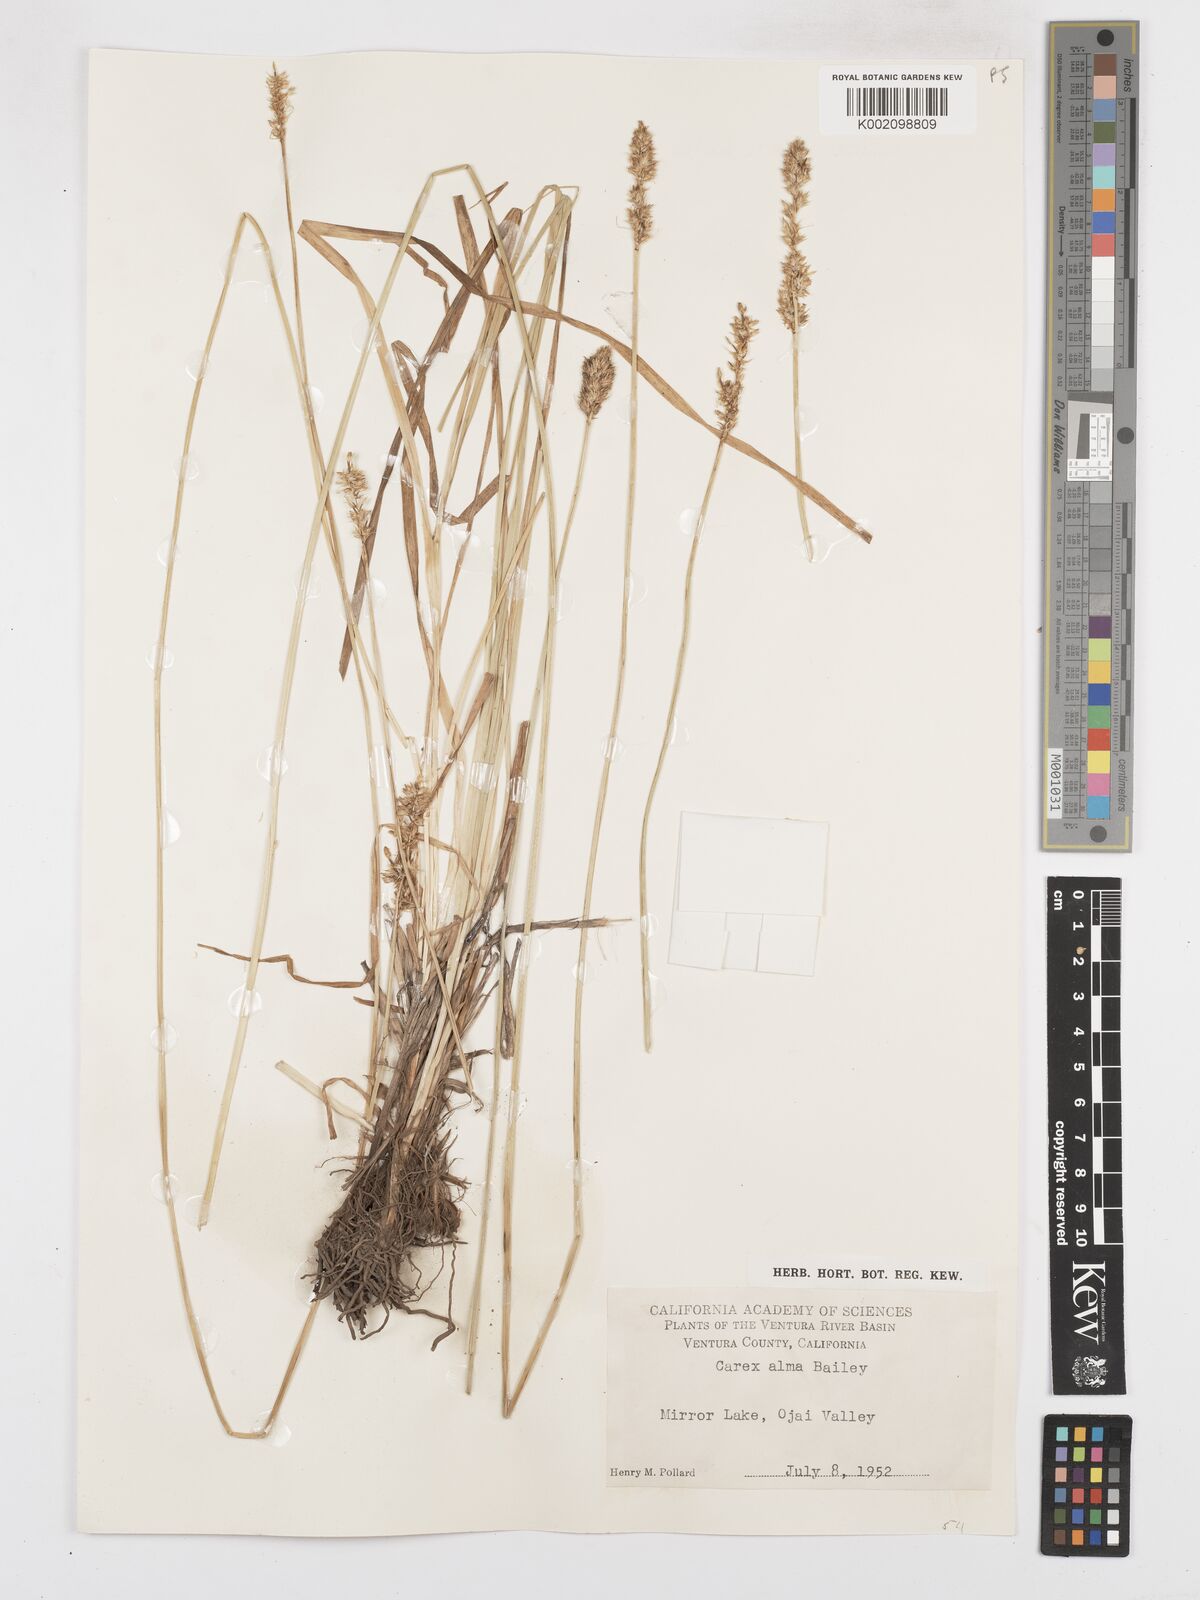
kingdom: Plantae
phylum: Tracheophyta
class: Liliopsida
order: Poales
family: Cyperaceae
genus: Carex
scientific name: Carex alma
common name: Alma sedge
